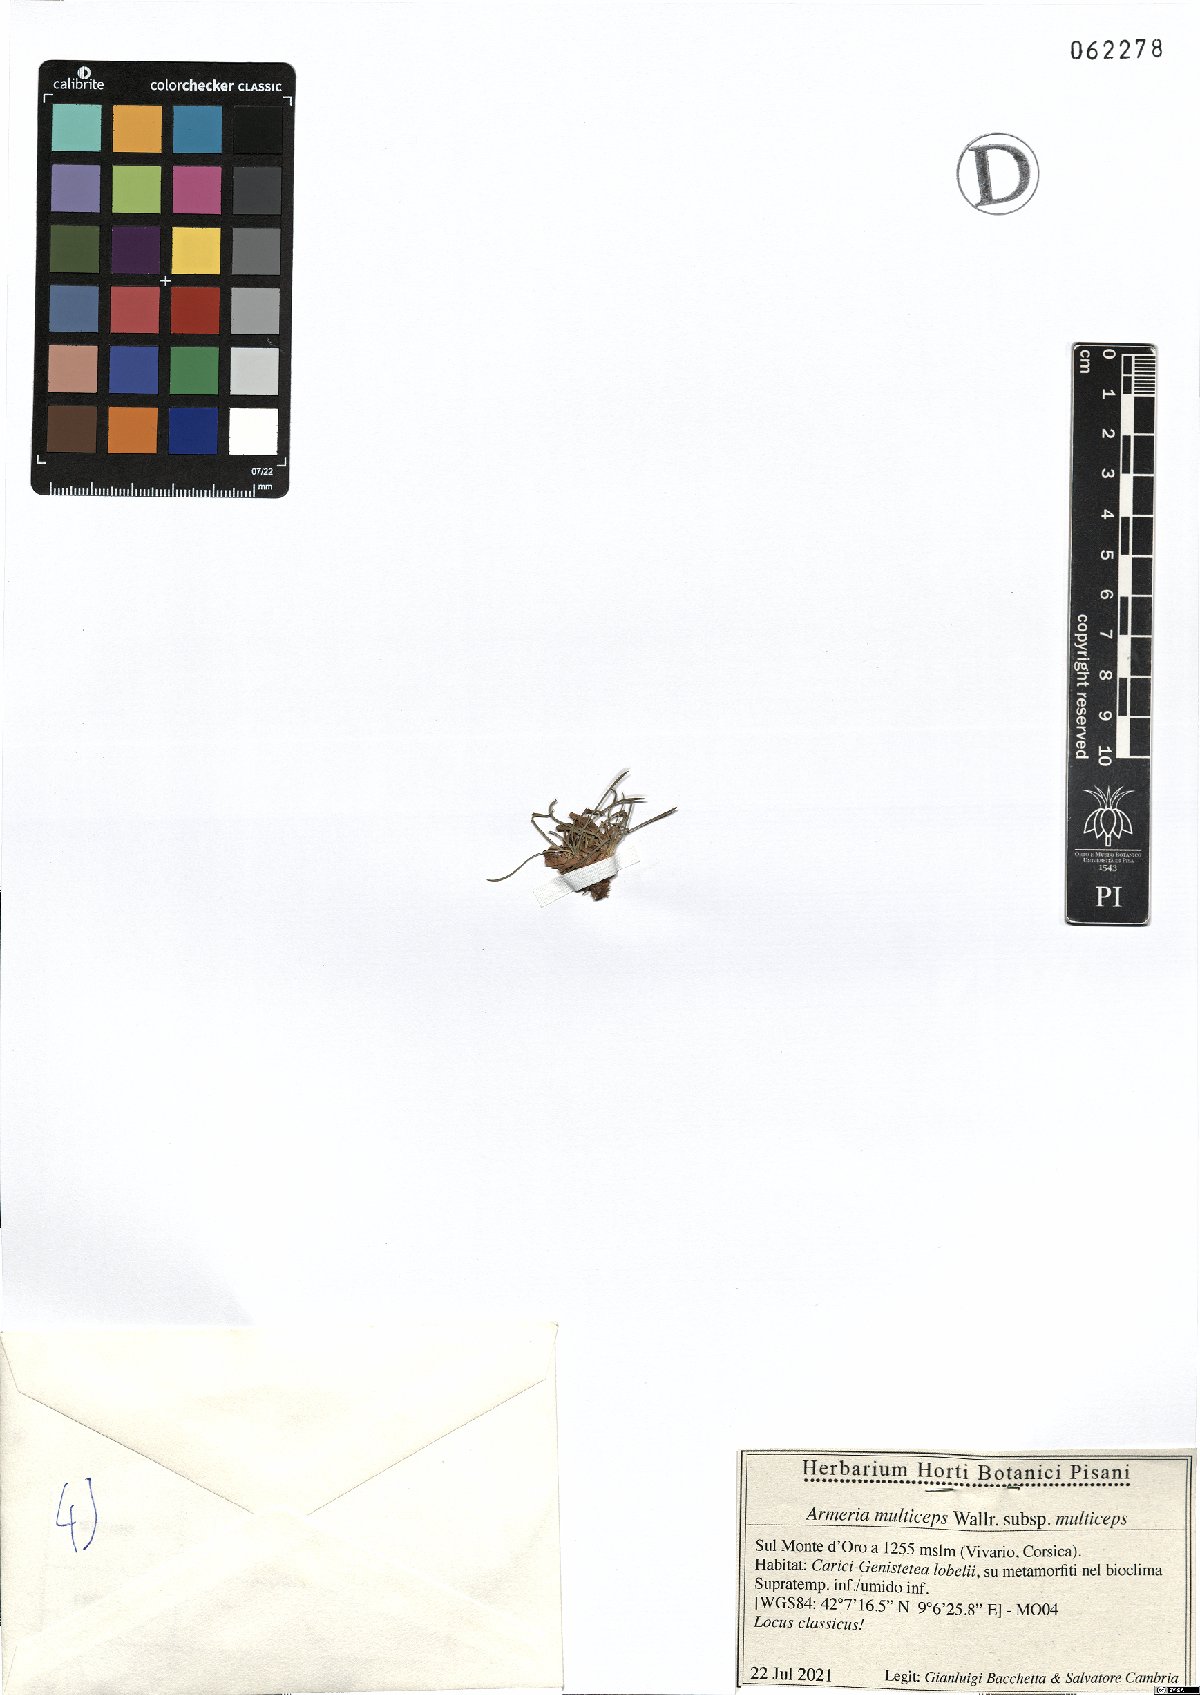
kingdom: Plantae
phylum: Tracheophyta
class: Magnoliopsida
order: Caryophyllales
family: Plumbaginaceae
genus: Armeria
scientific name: Armeria multiceps
